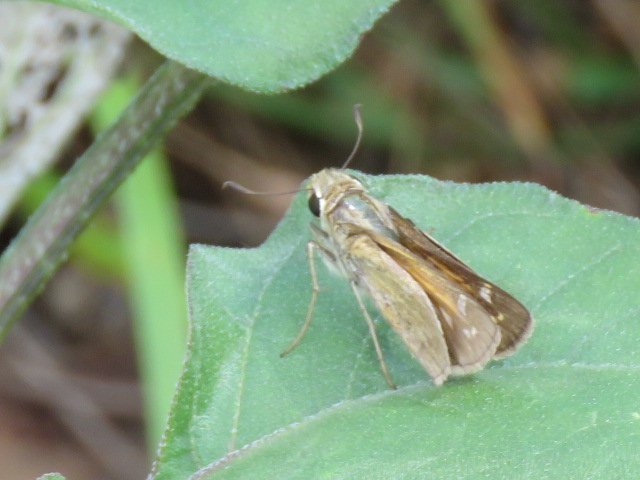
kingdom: Animalia
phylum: Arthropoda
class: Insecta
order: Lepidoptera
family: Hesperiidae
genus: Atalopedes
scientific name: Atalopedes campestris
